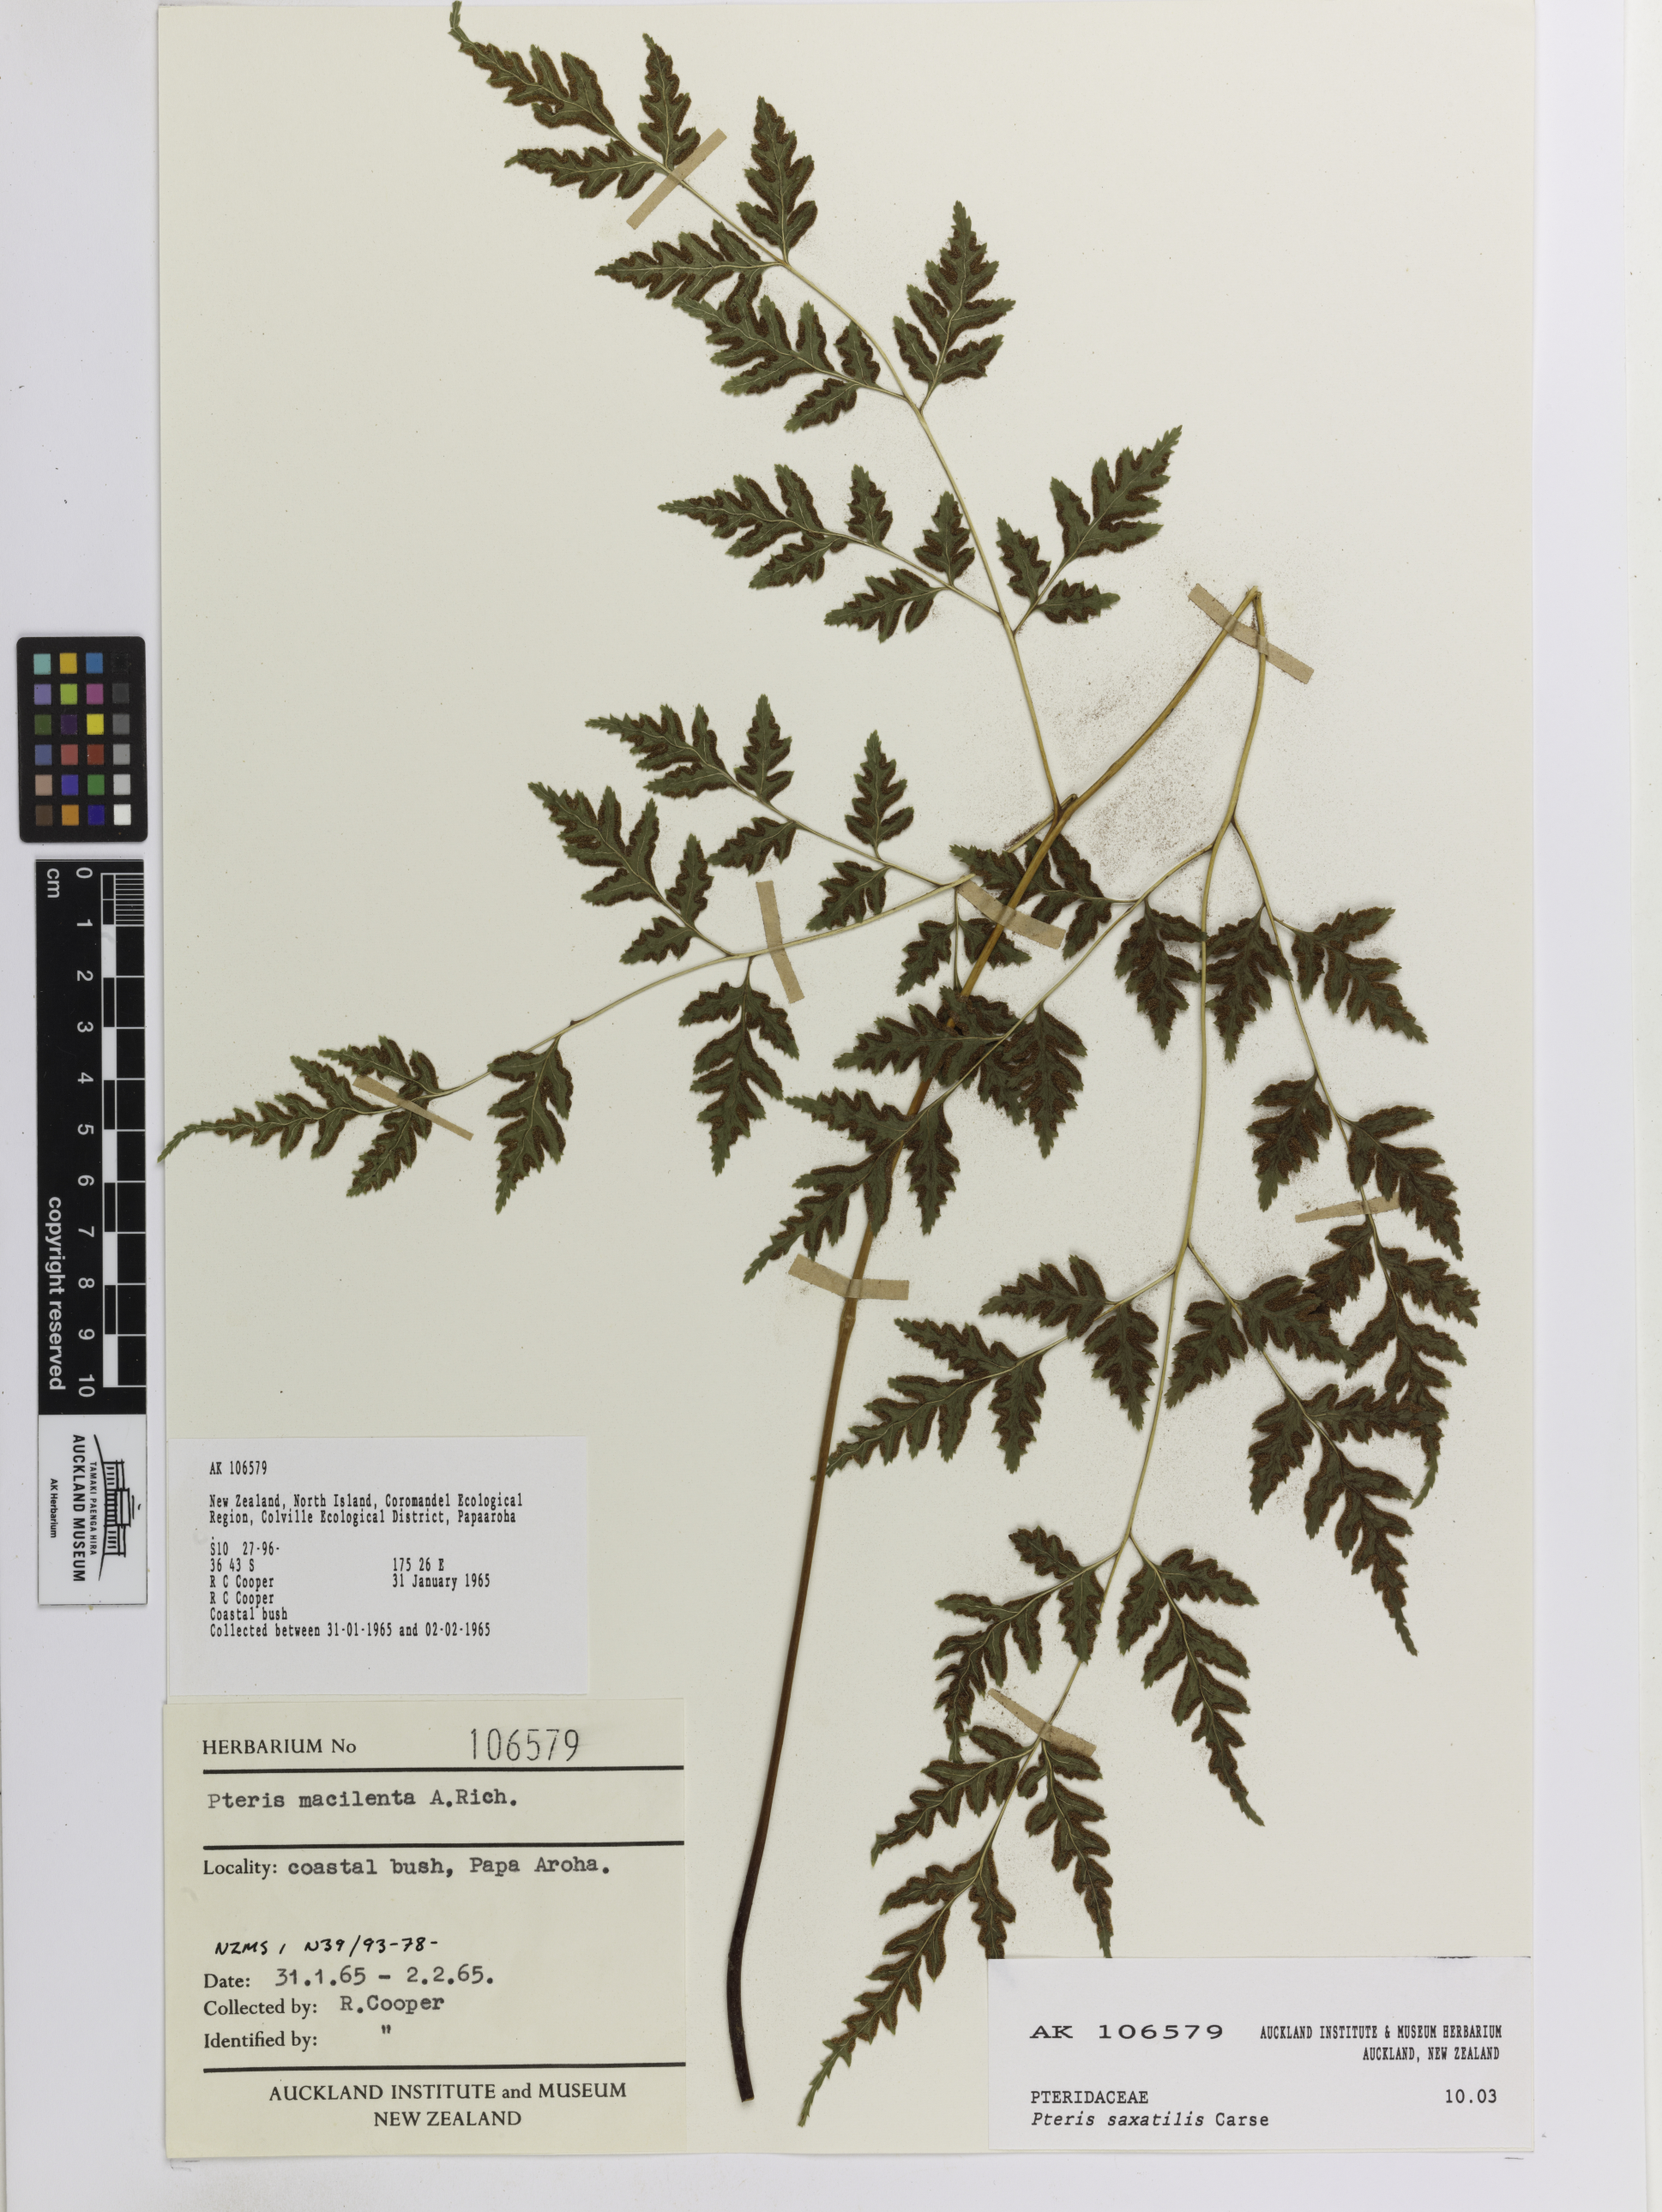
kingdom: Plantae
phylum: Tracheophyta
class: Polypodiopsida
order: Polypodiales
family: Pteridaceae
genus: Pteris
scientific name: Pteris saxatilis
